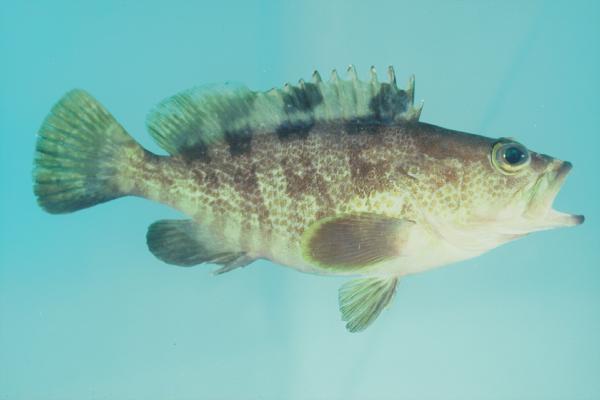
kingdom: Animalia
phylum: Chordata
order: Perciformes
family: Serranidae
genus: Epinephelus
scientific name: Epinephelus fasciatomaculosus
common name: Rock grouper
